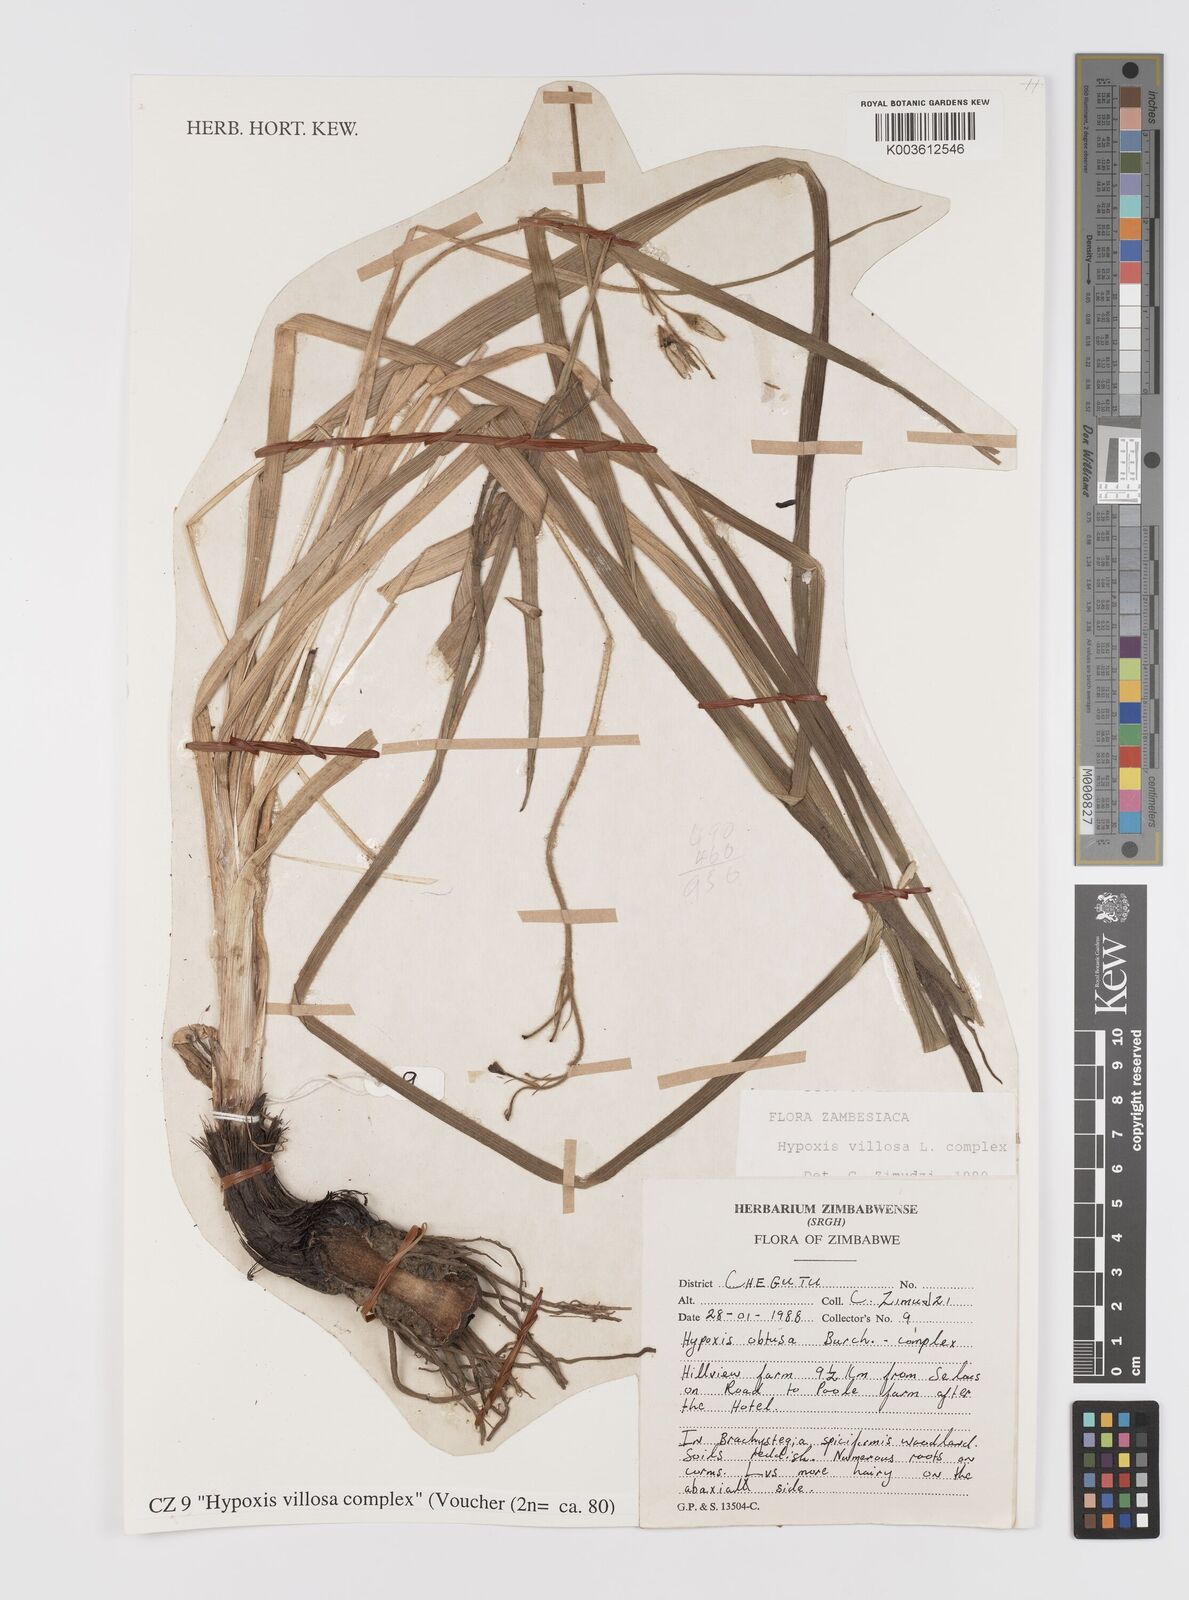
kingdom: Plantae
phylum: Tracheophyta
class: Liliopsida
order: Asparagales
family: Hypoxidaceae
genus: Hypoxis
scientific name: Hypoxis villosa
